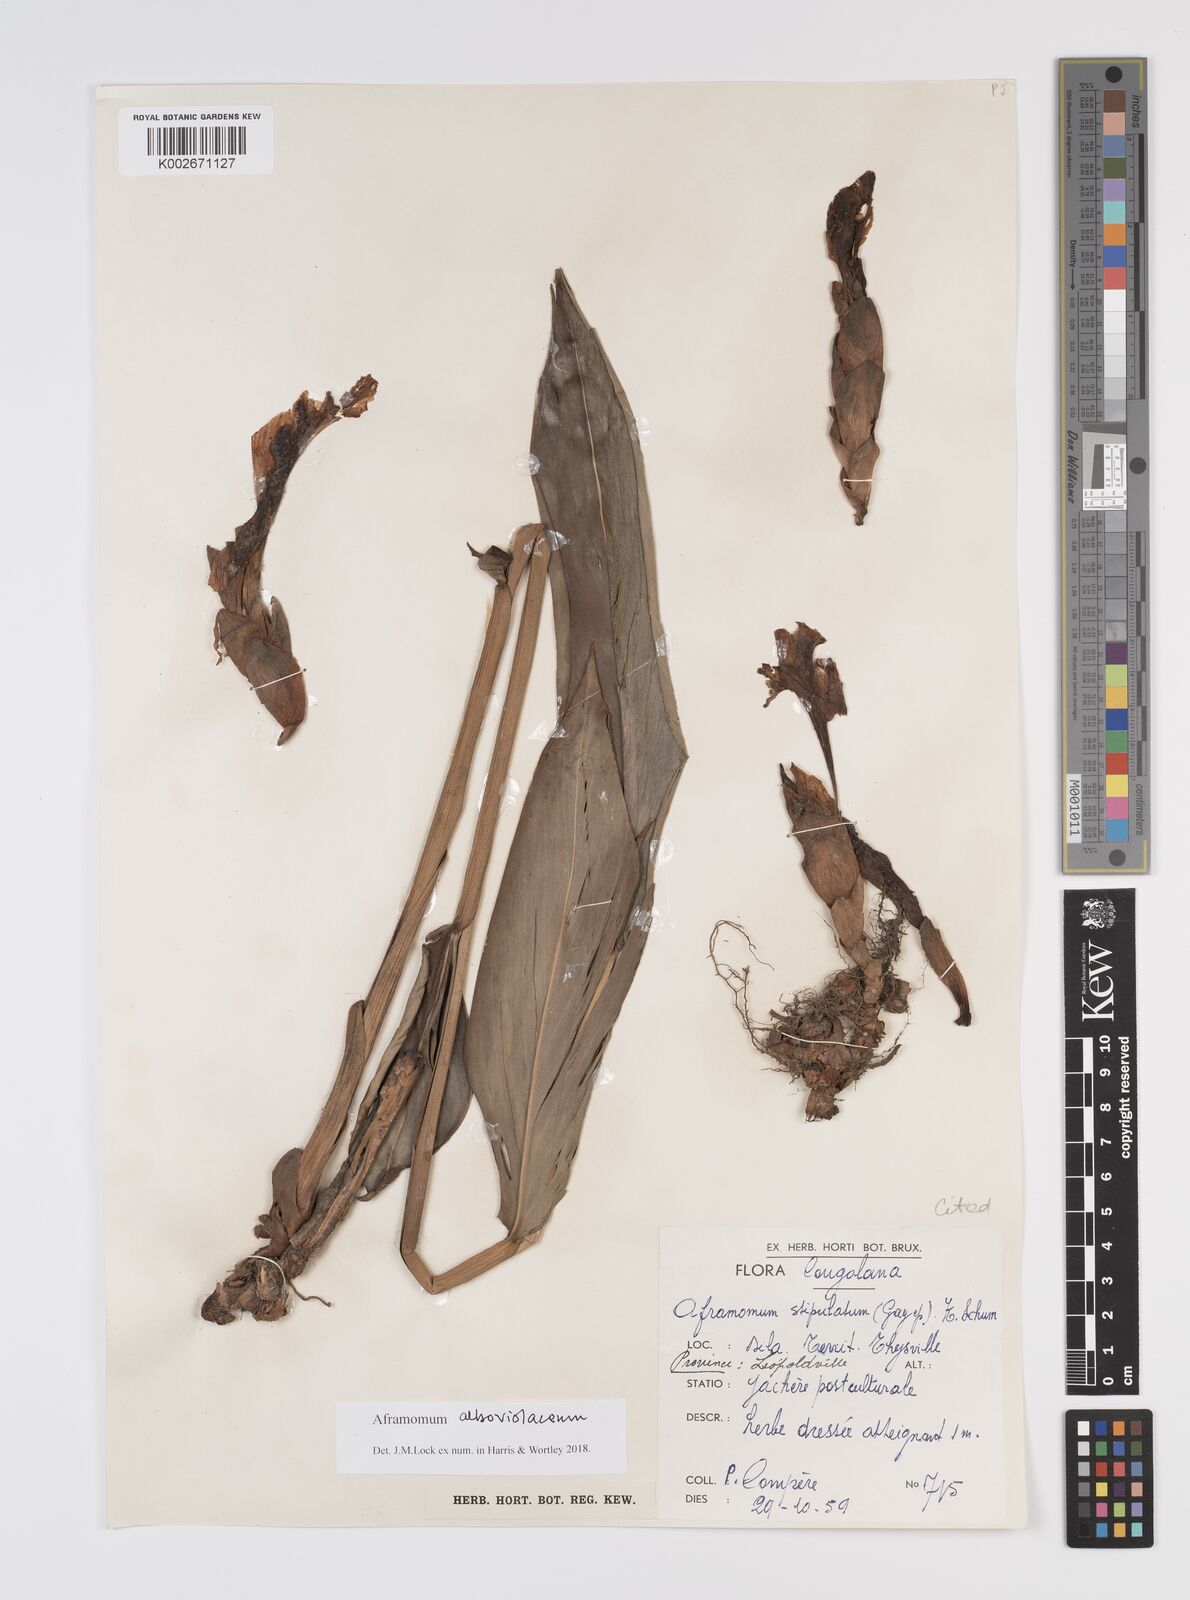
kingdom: Plantae
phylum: Tracheophyta
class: Liliopsida
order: Zingiberales
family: Zingiberaceae
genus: Aframomum
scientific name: Aframomum alboviolaceum
